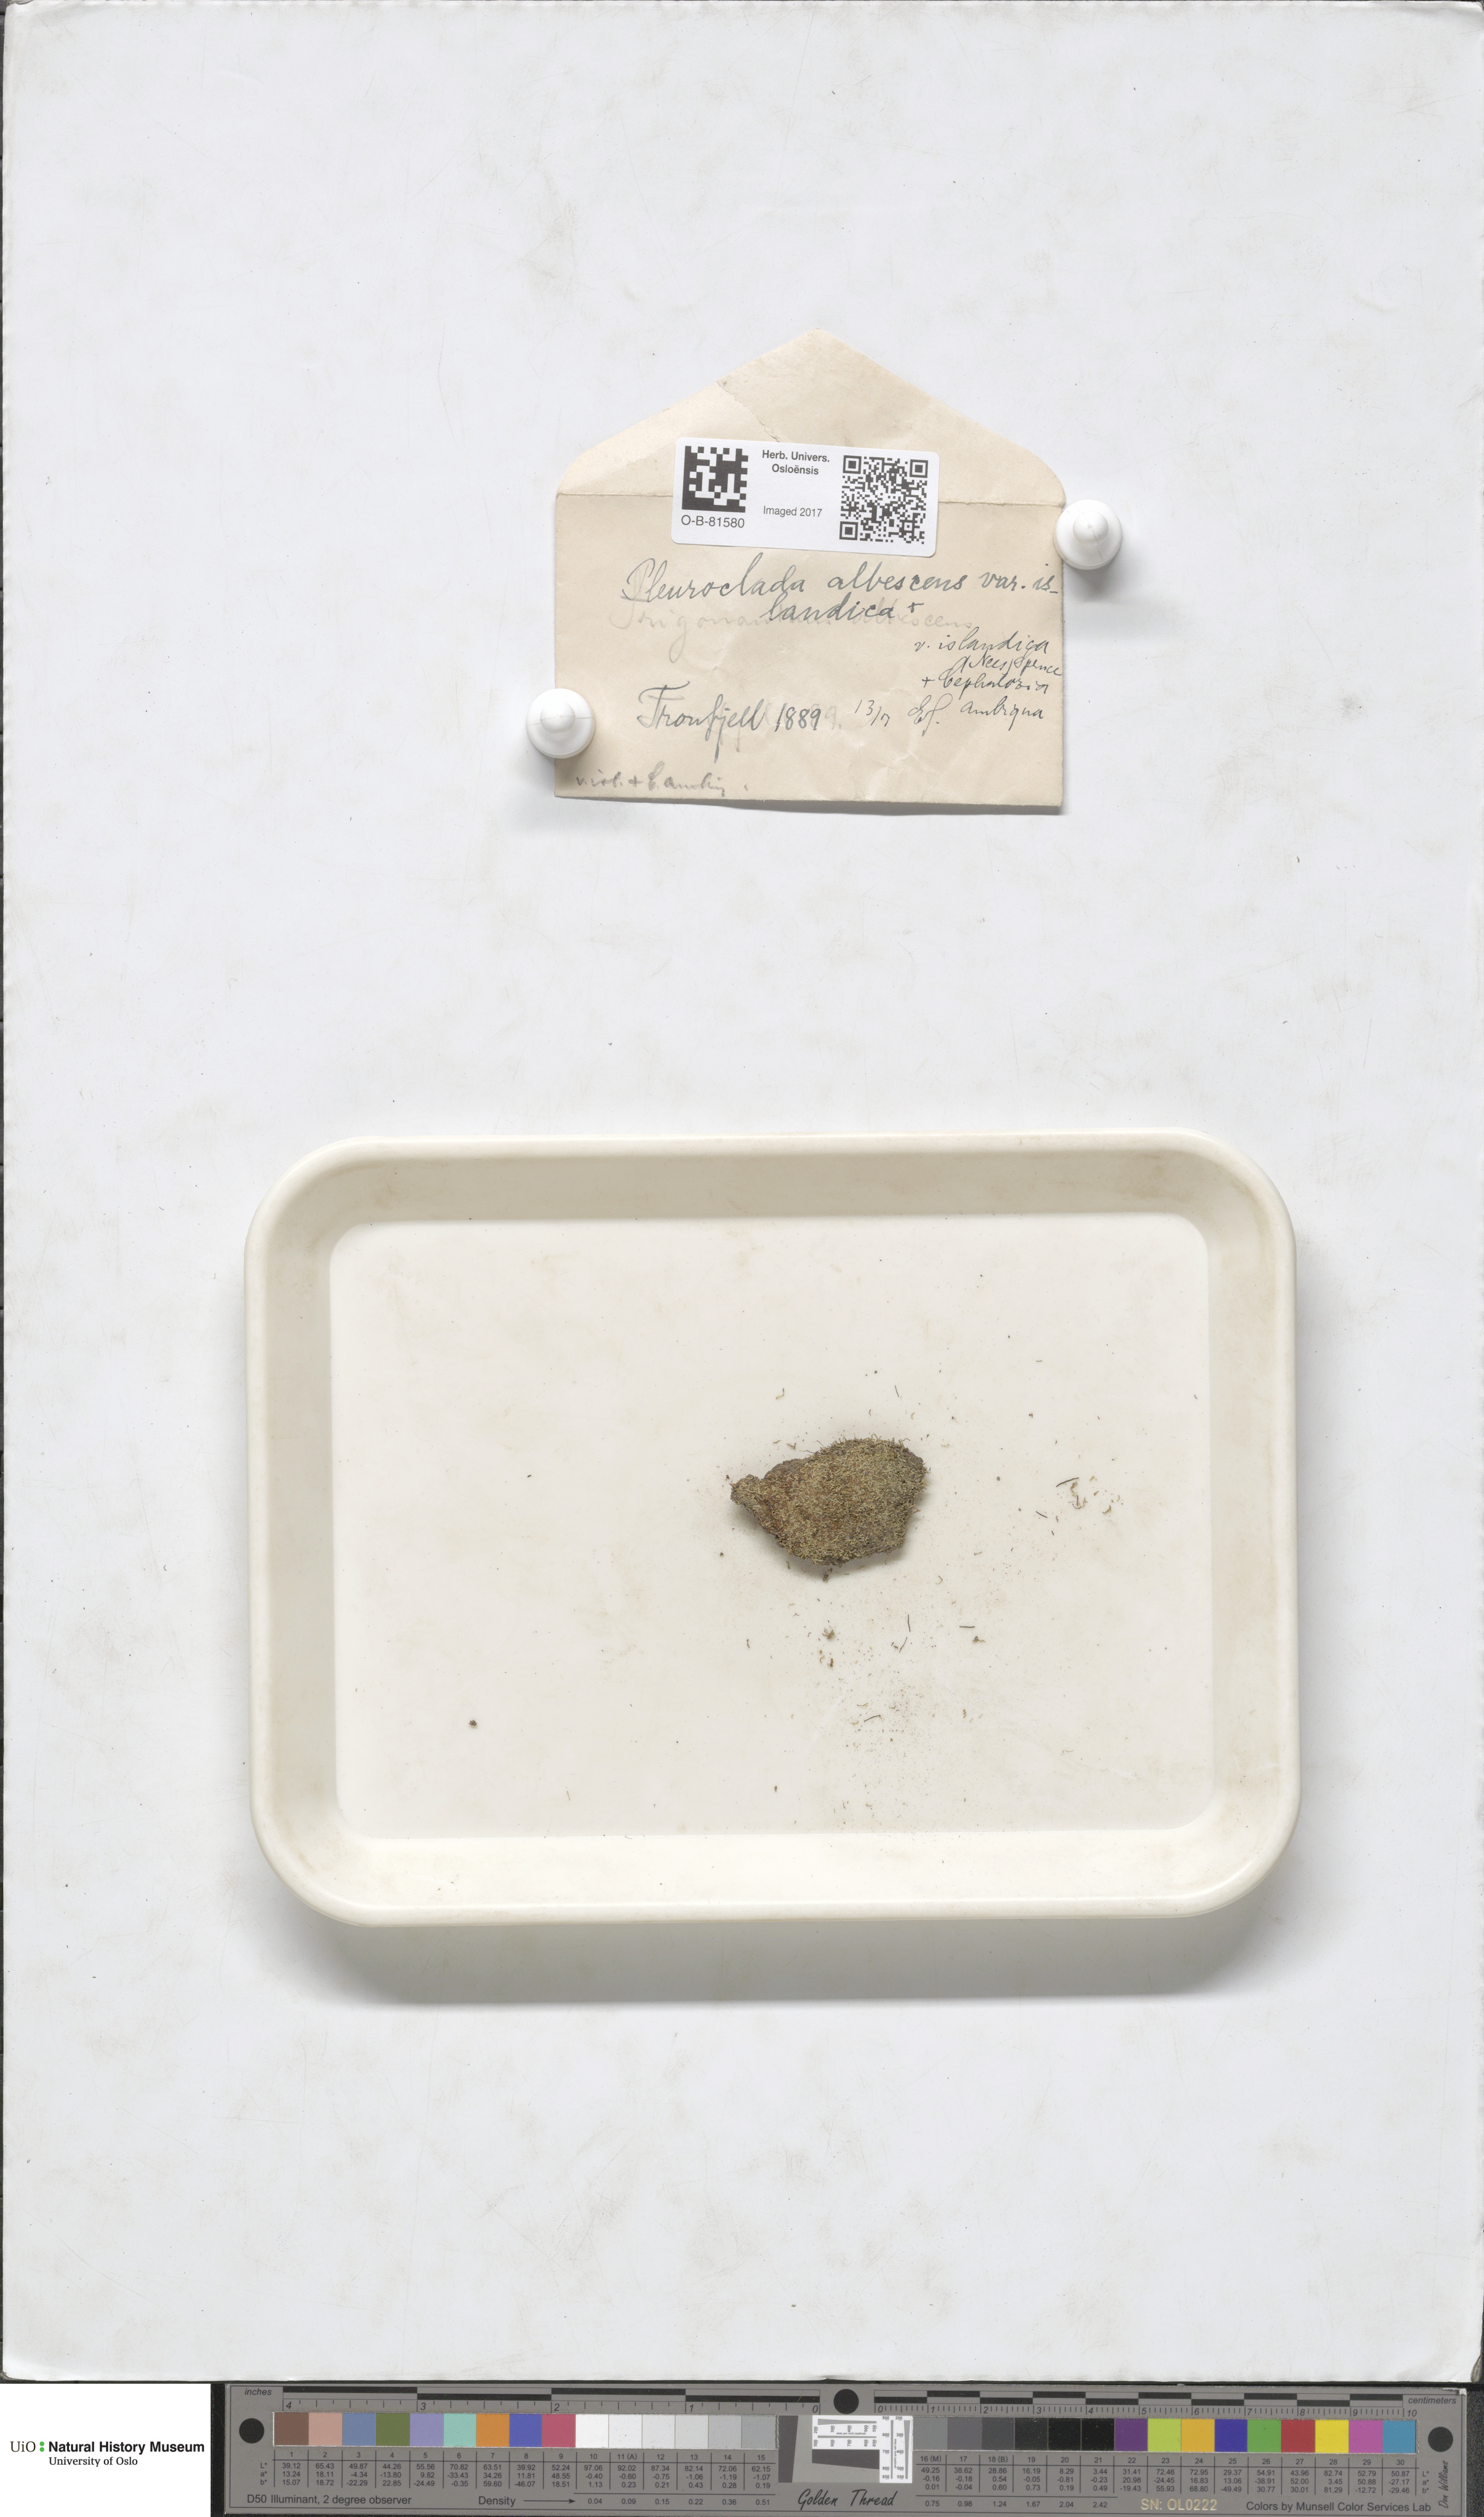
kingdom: Plantae
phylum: Marchantiophyta
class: Jungermanniopsida
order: Jungermanniales
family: Cephaloziaceae
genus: Fuscocephaloziopsis
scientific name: Fuscocephaloziopsis albescens
